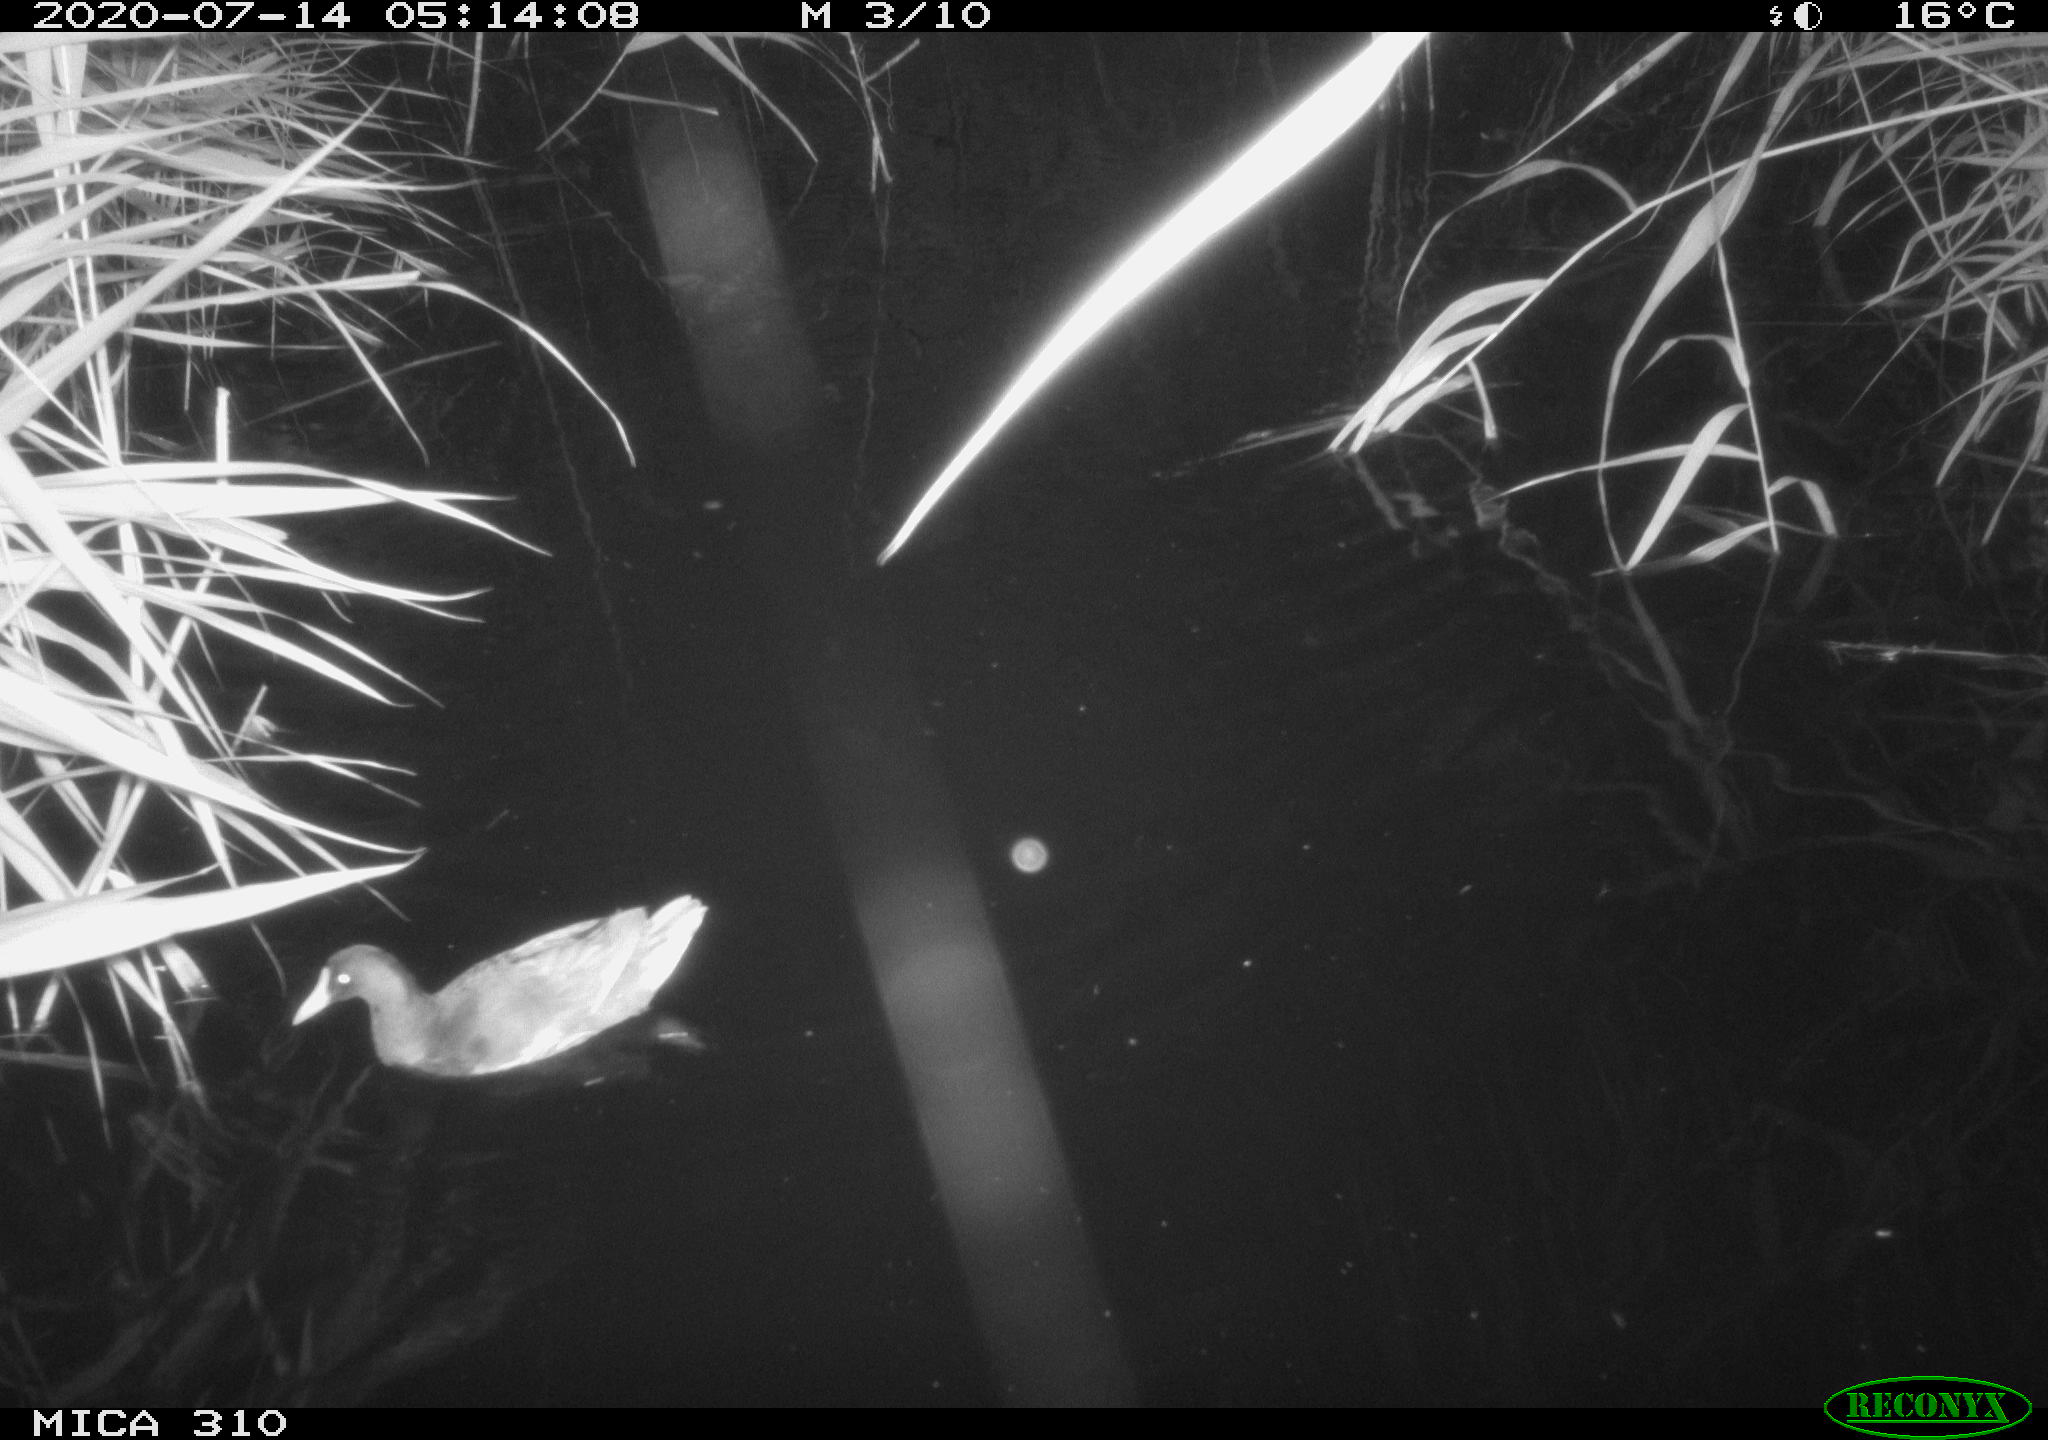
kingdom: Animalia
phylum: Chordata
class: Aves
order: Gruiformes
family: Rallidae
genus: Gallinula
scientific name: Gallinula chloropus
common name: Common moorhen
